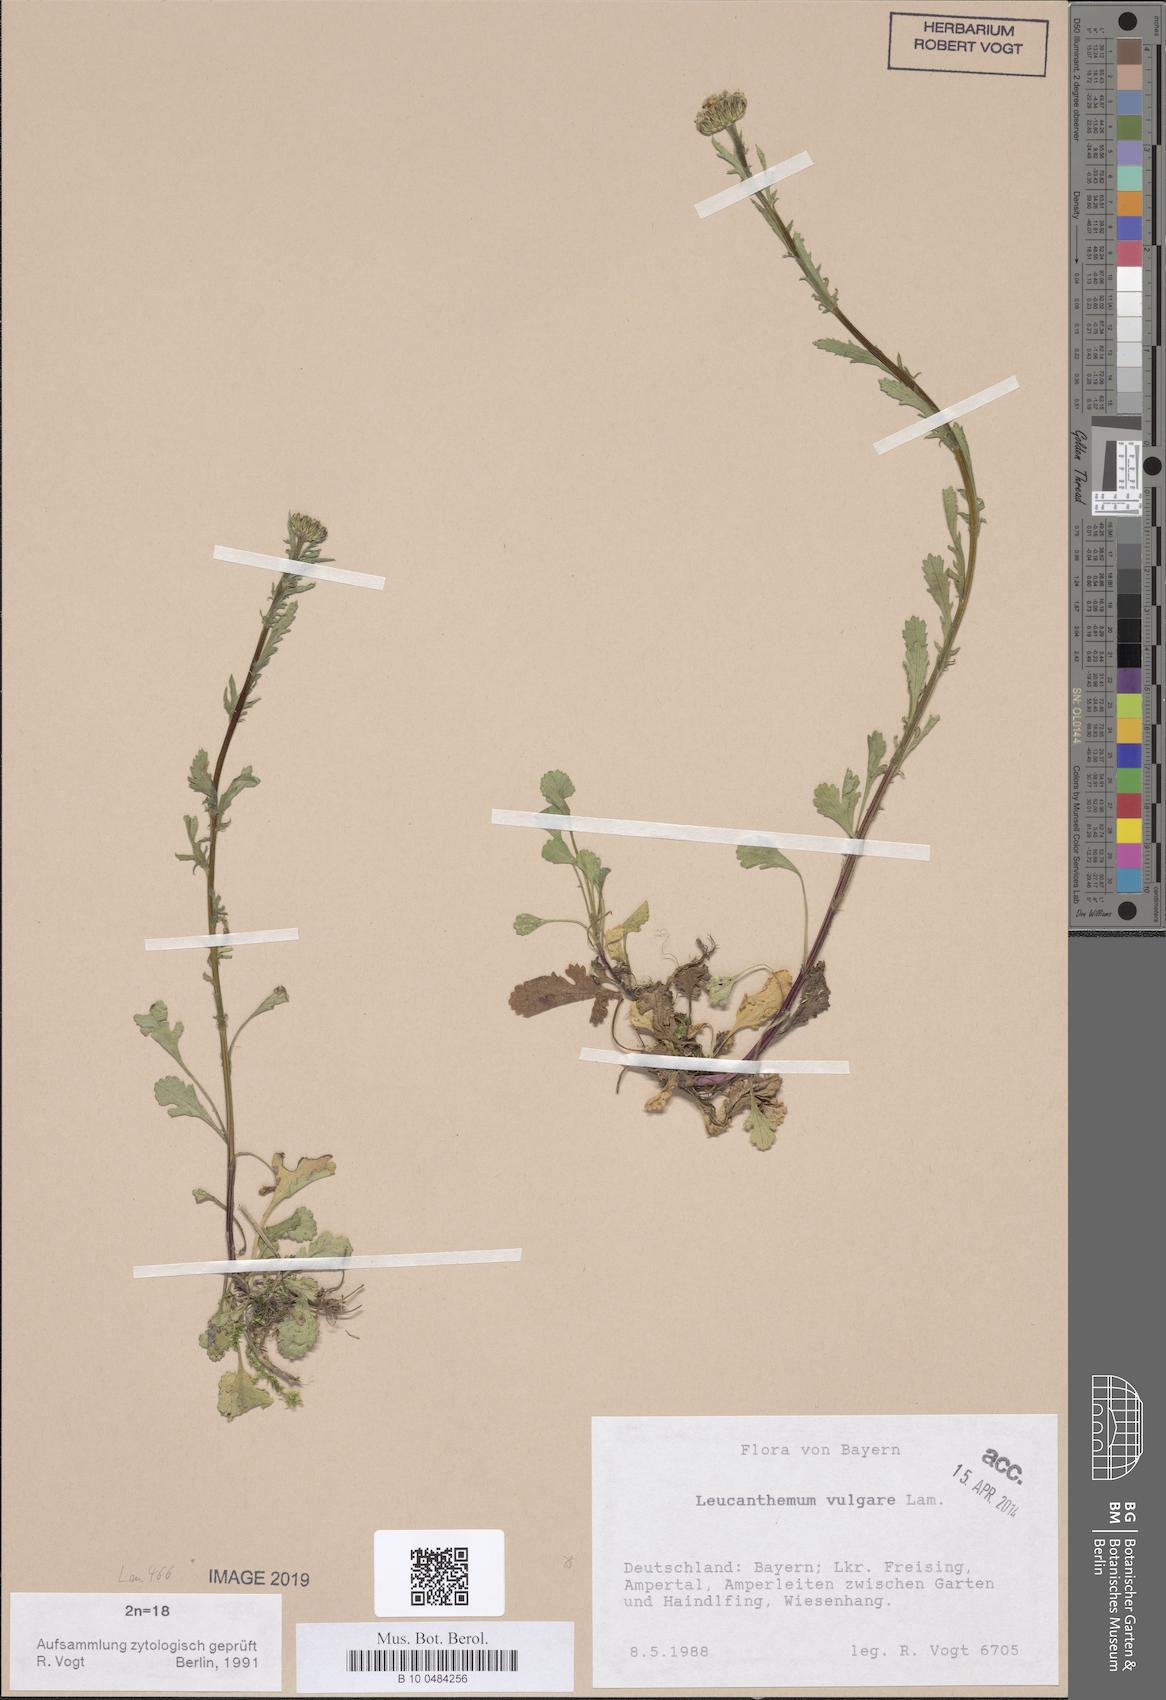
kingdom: Plantae
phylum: Tracheophyta
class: Magnoliopsida
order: Asterales
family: Asteraceae
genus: Leucanthemum
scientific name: Leucanthemum vulgare
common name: Oxeye daisy
